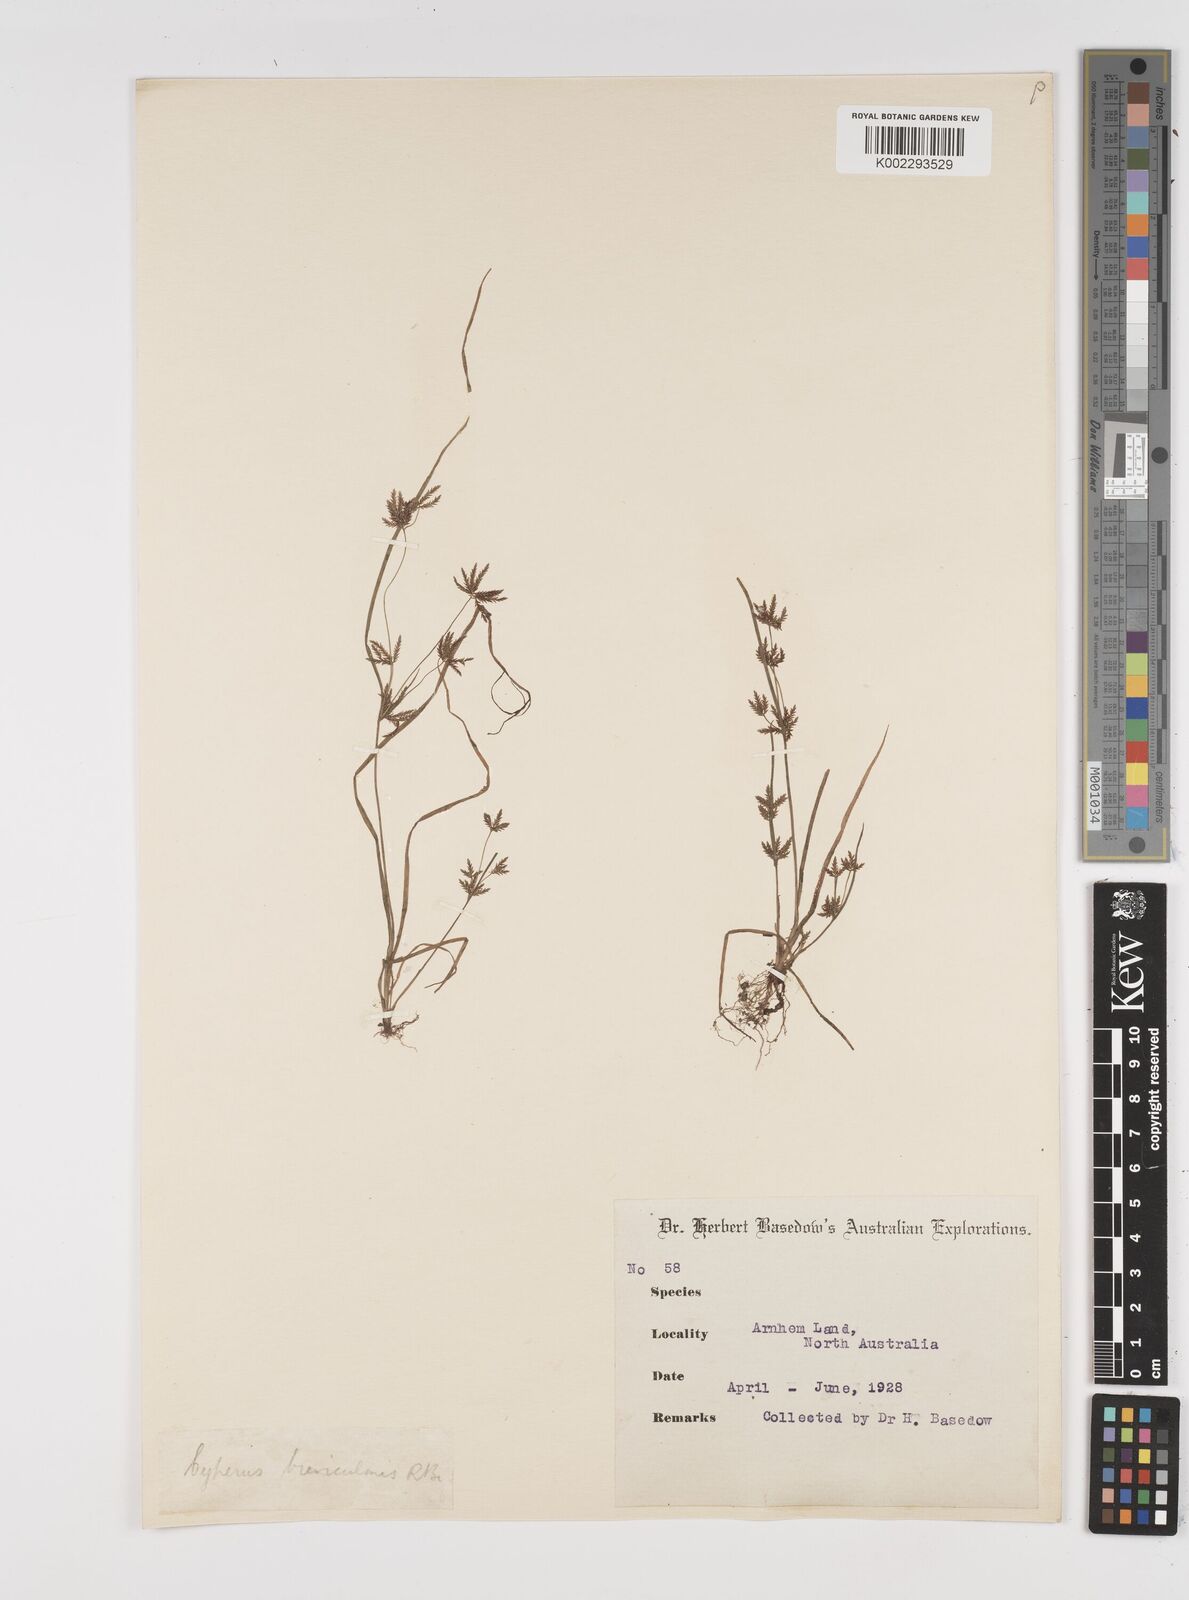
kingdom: Plantae
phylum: Tracheophyta
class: Liliopsida
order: Poales
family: Cyperaceae
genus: Cyperus
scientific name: Cyperus breviculmis
